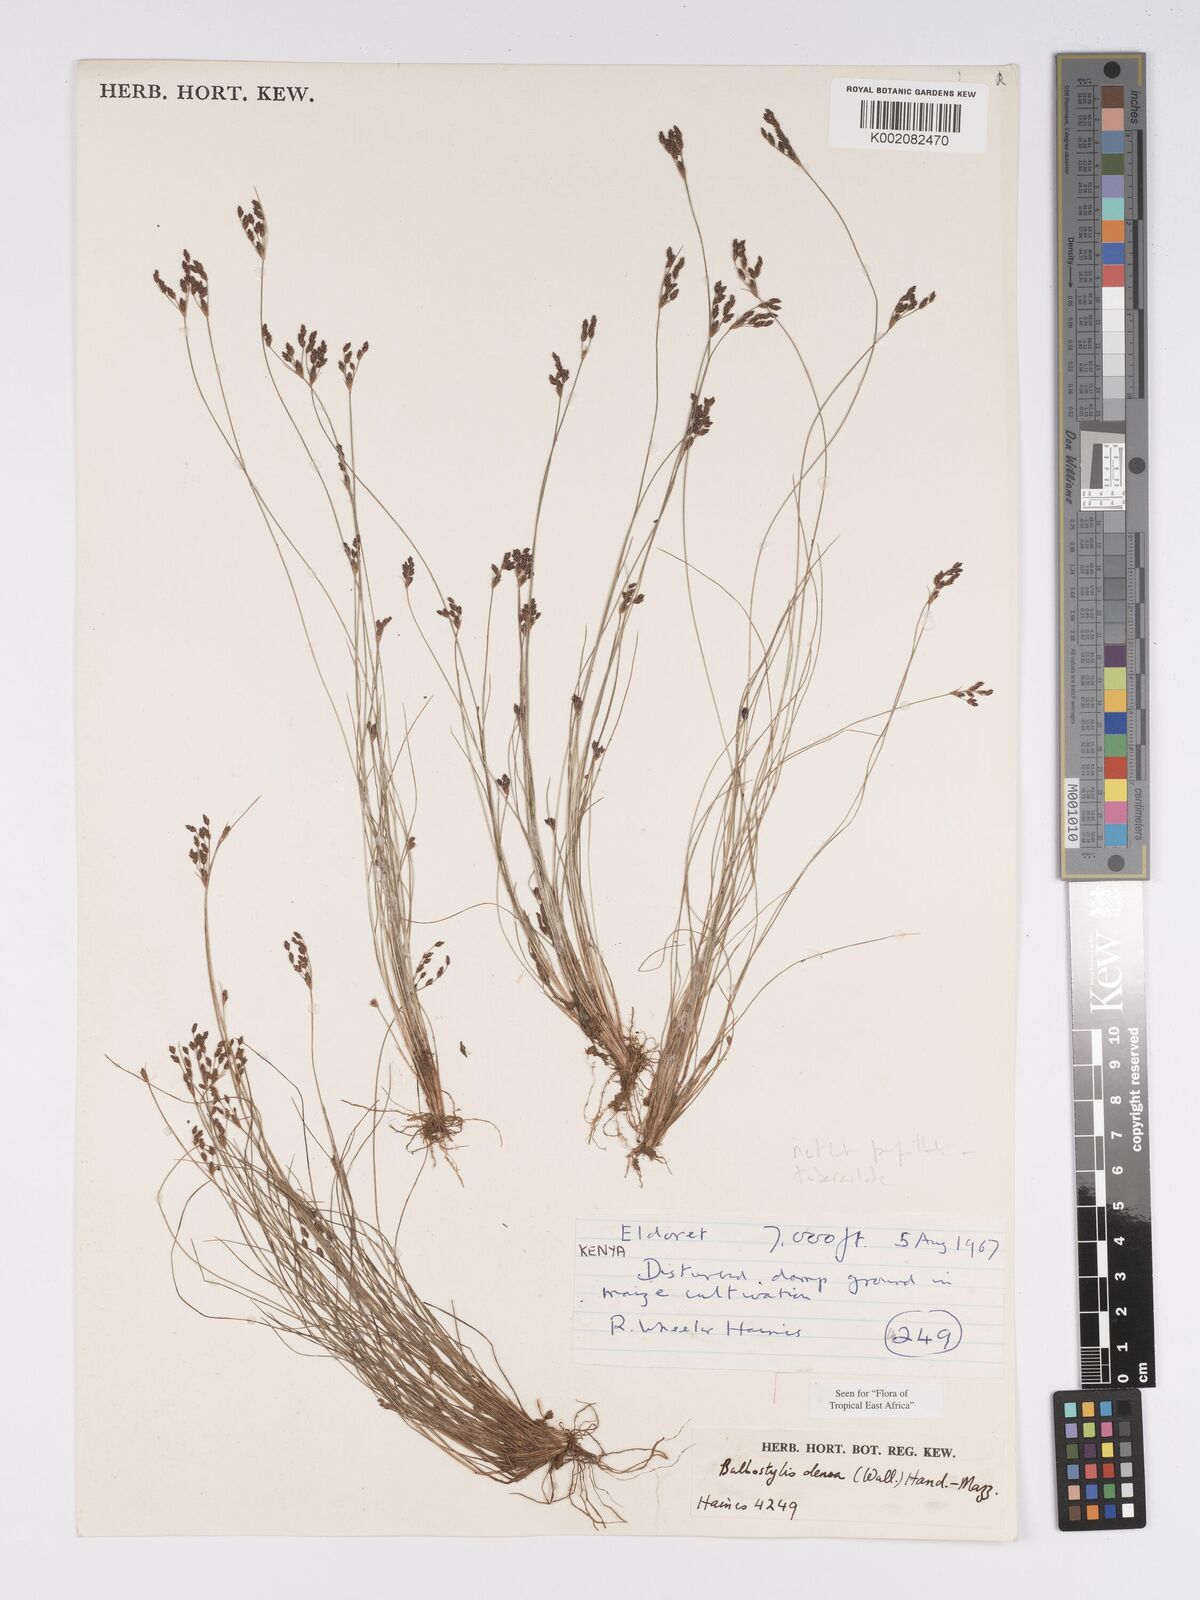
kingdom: Plantae
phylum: Tracheophyta
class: Liliopsida
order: Poales
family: Cyperaceae
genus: Bulbostylis
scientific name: Bulbostylis densa
